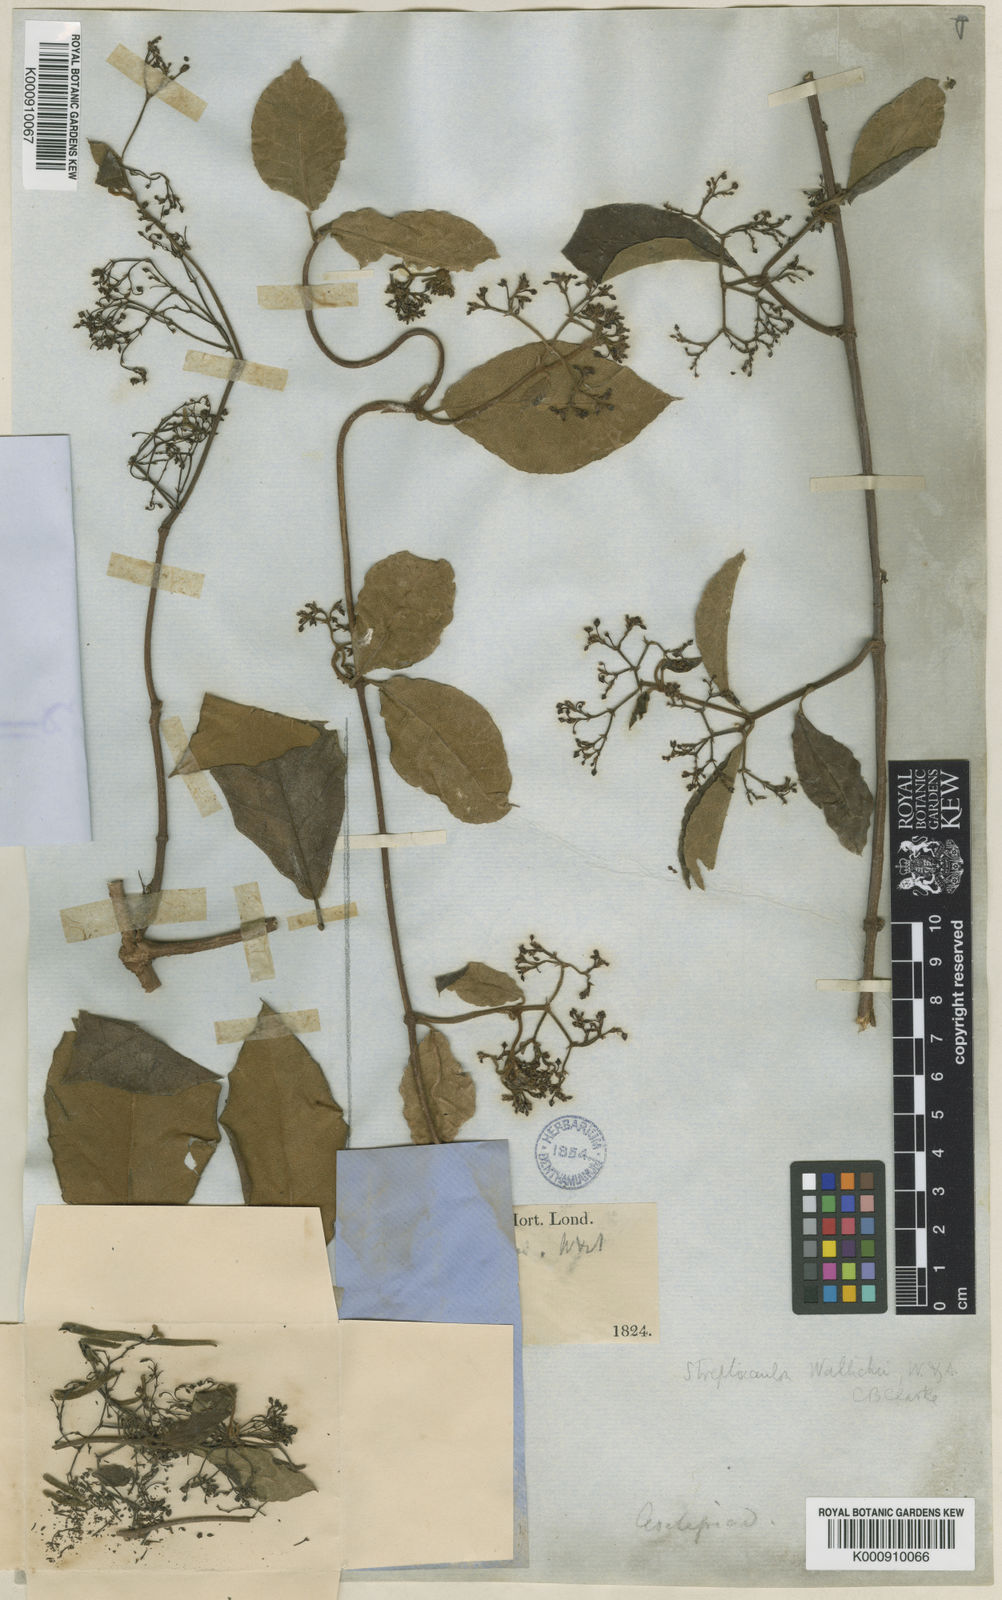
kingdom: Plantae
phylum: Tracheophyta
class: Magnoliopsida
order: Gentianales
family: Apocynaceae
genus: Streptocaulon
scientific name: Streptocaulon wallichii
